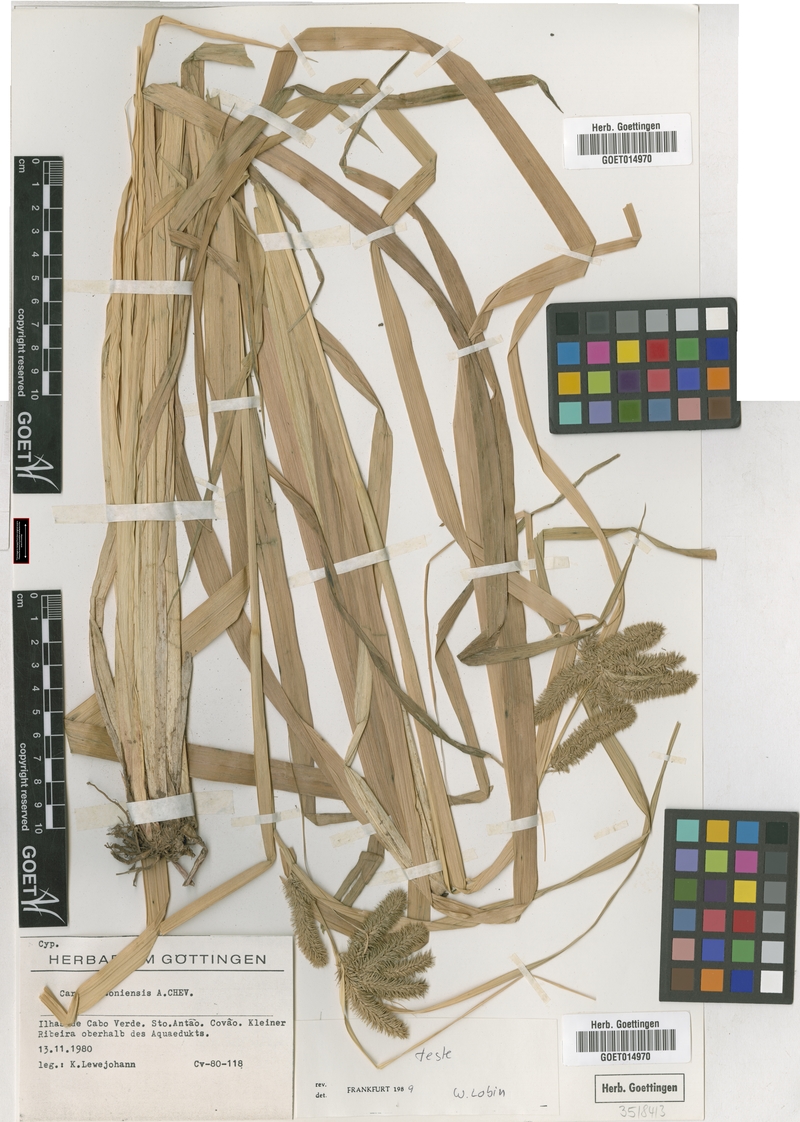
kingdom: Plantae
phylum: Tracheophyta
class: Liliopsida
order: Poales
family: Cyperaceae
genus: Carex
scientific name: Carex antoniensis
